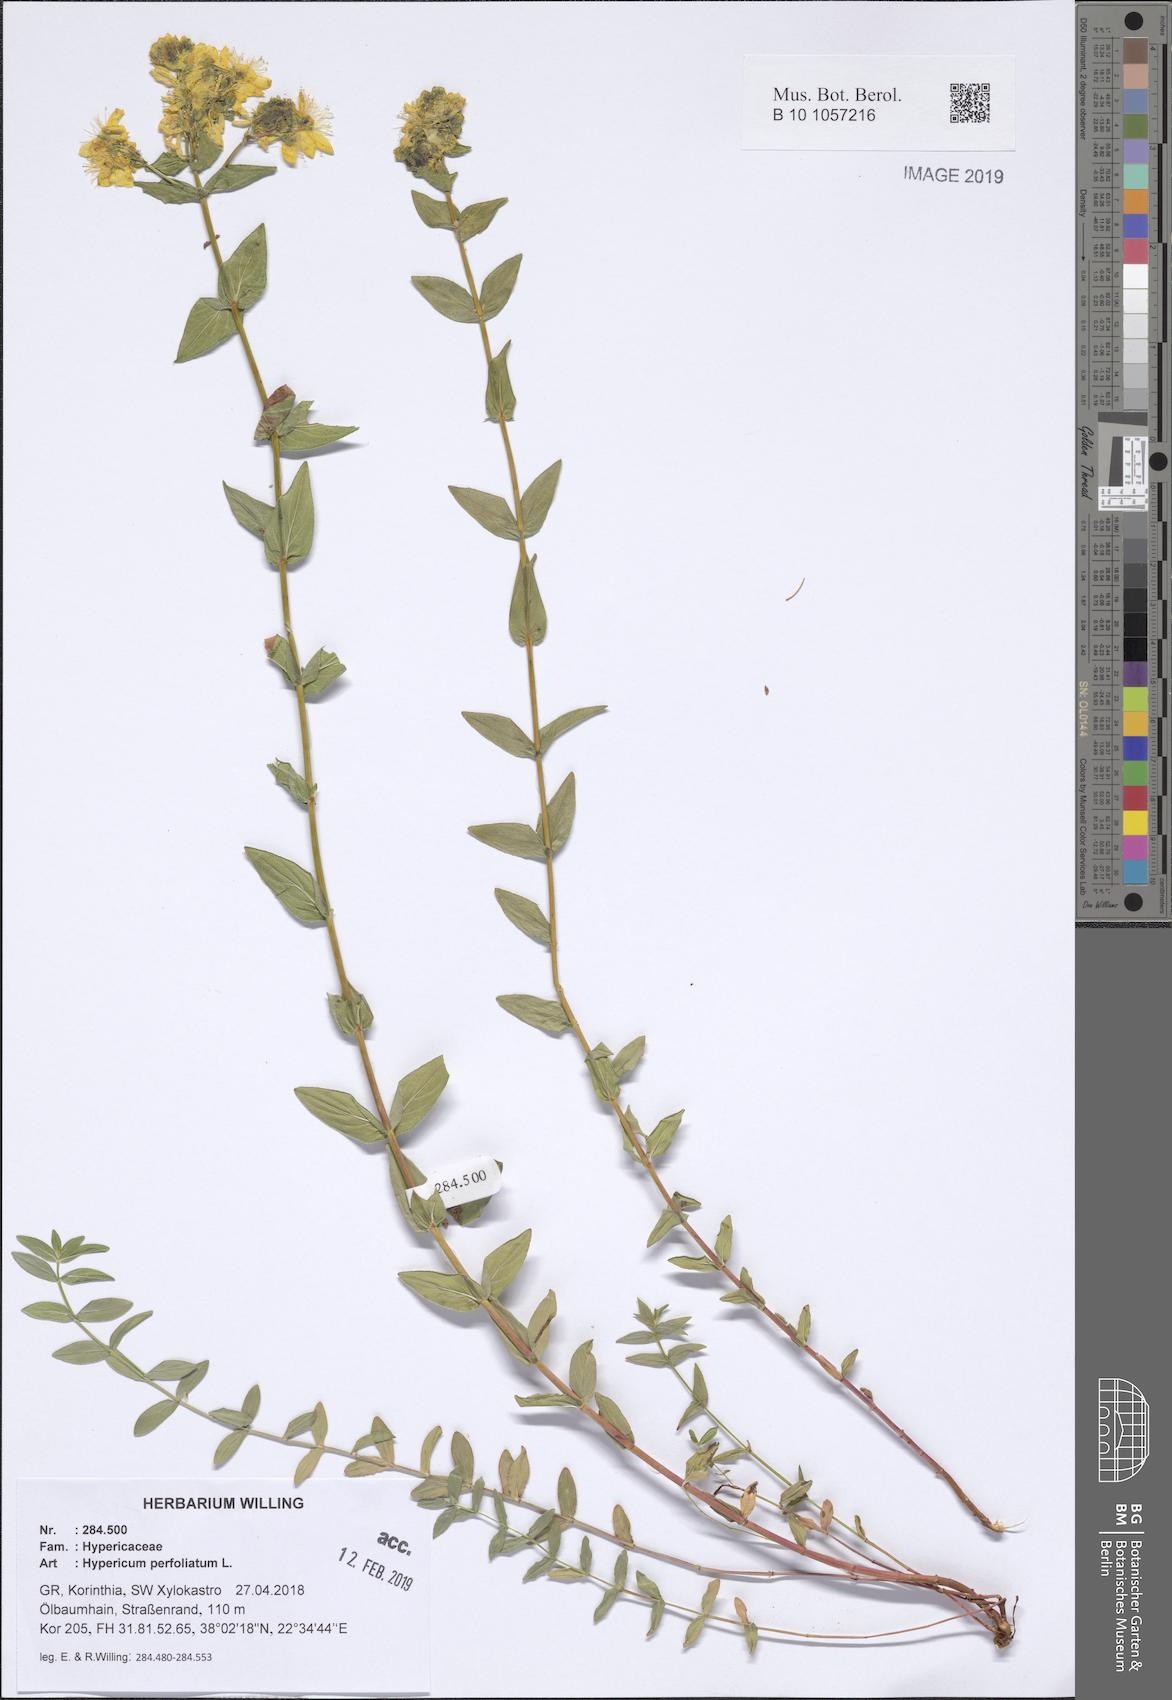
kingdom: Plantae
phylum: Tracheophyta
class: Magnoliopsida
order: Malpighiales
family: Hypericaceae
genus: Hypericum
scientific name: Hypericum perfoliatum
